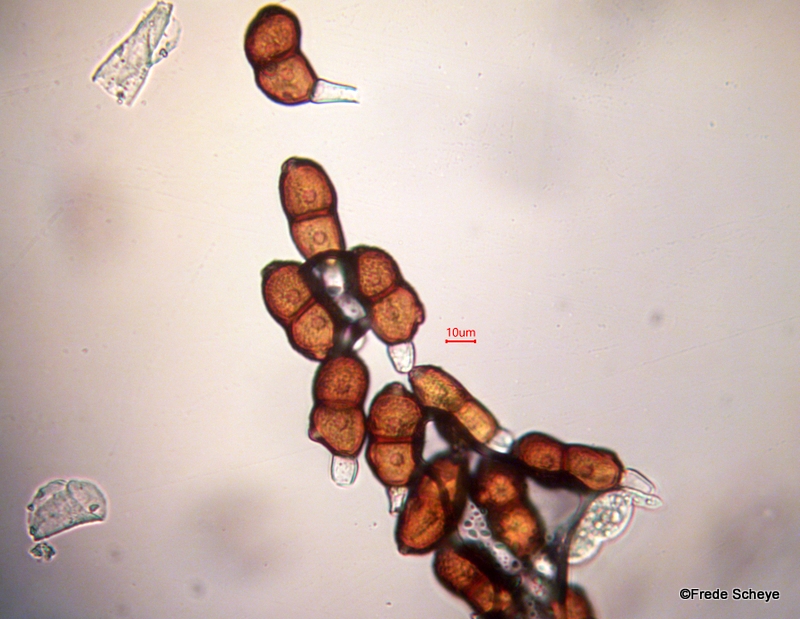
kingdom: Fungi
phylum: Basidiomycota
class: Pucciniomycetes
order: Pucciniales
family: Pucciniaceae
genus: Puccinia
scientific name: Puccinia singularis
